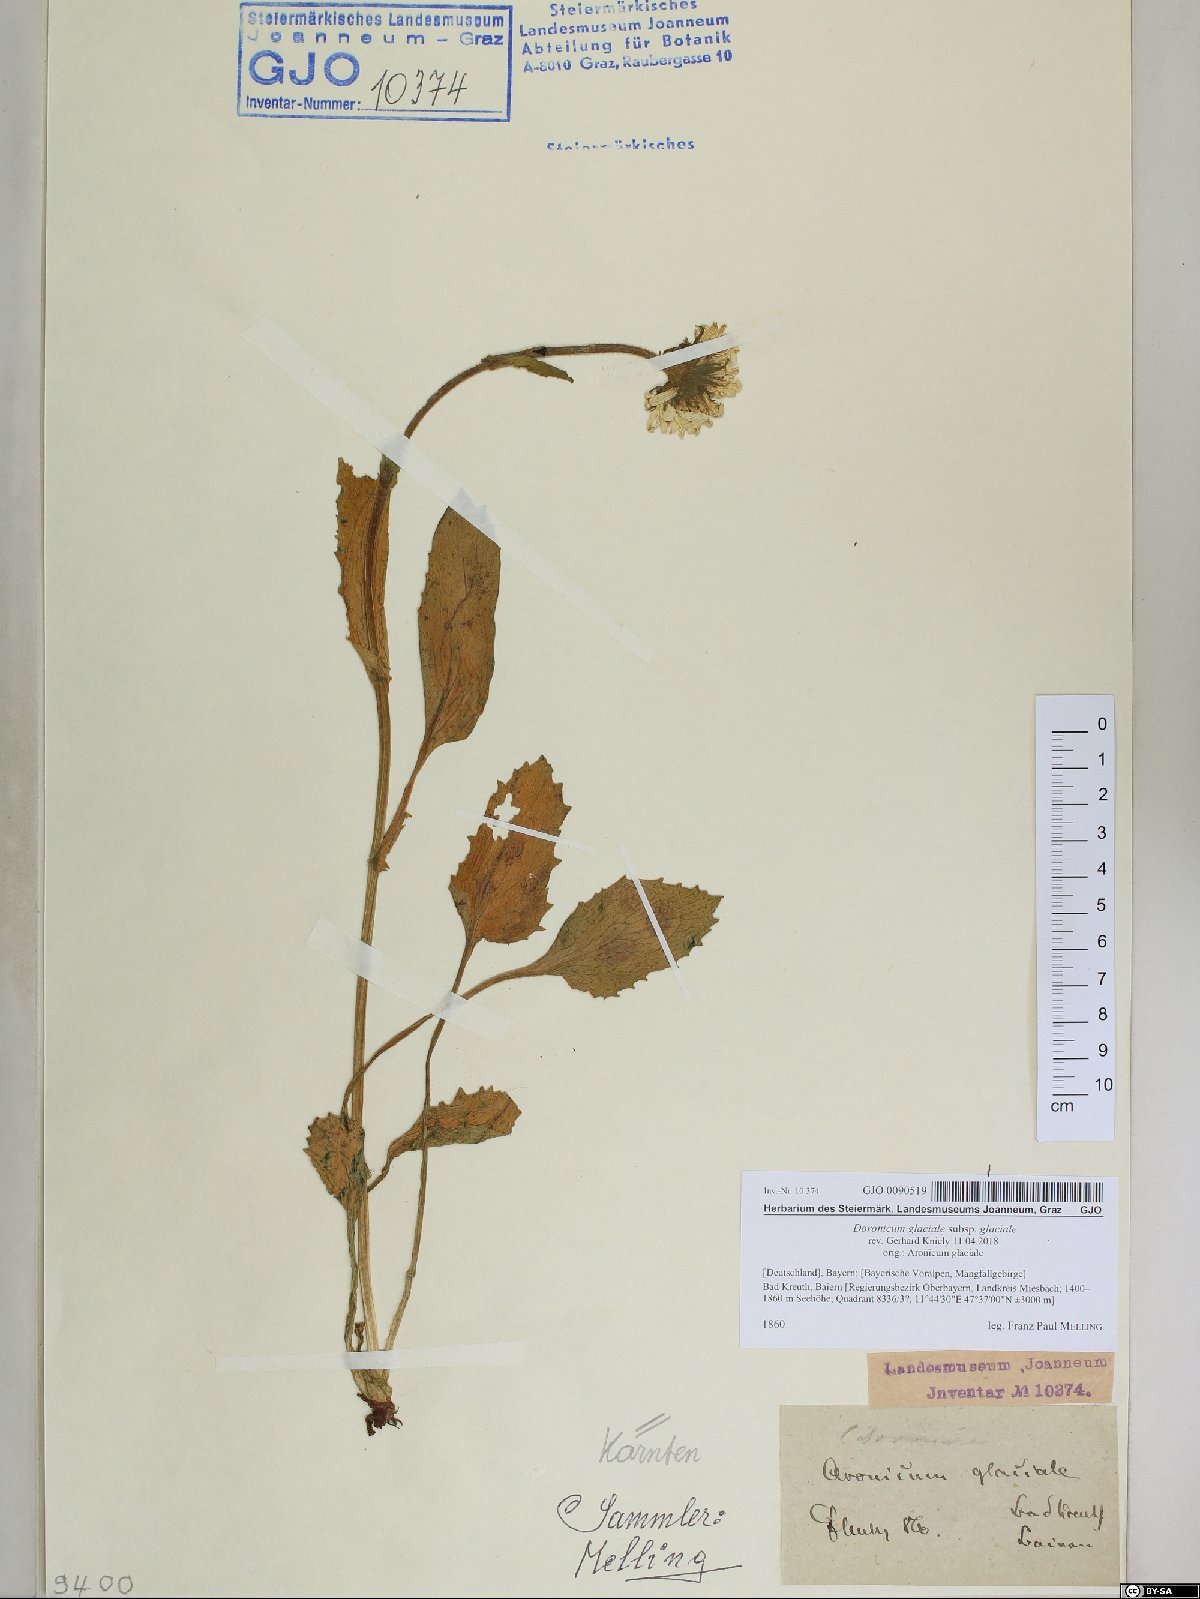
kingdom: Plantae
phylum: Tracheophyta
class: Magnoliopsida
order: Asterales
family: Asteraceae
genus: Doronicum
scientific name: Doronicum glaciale
